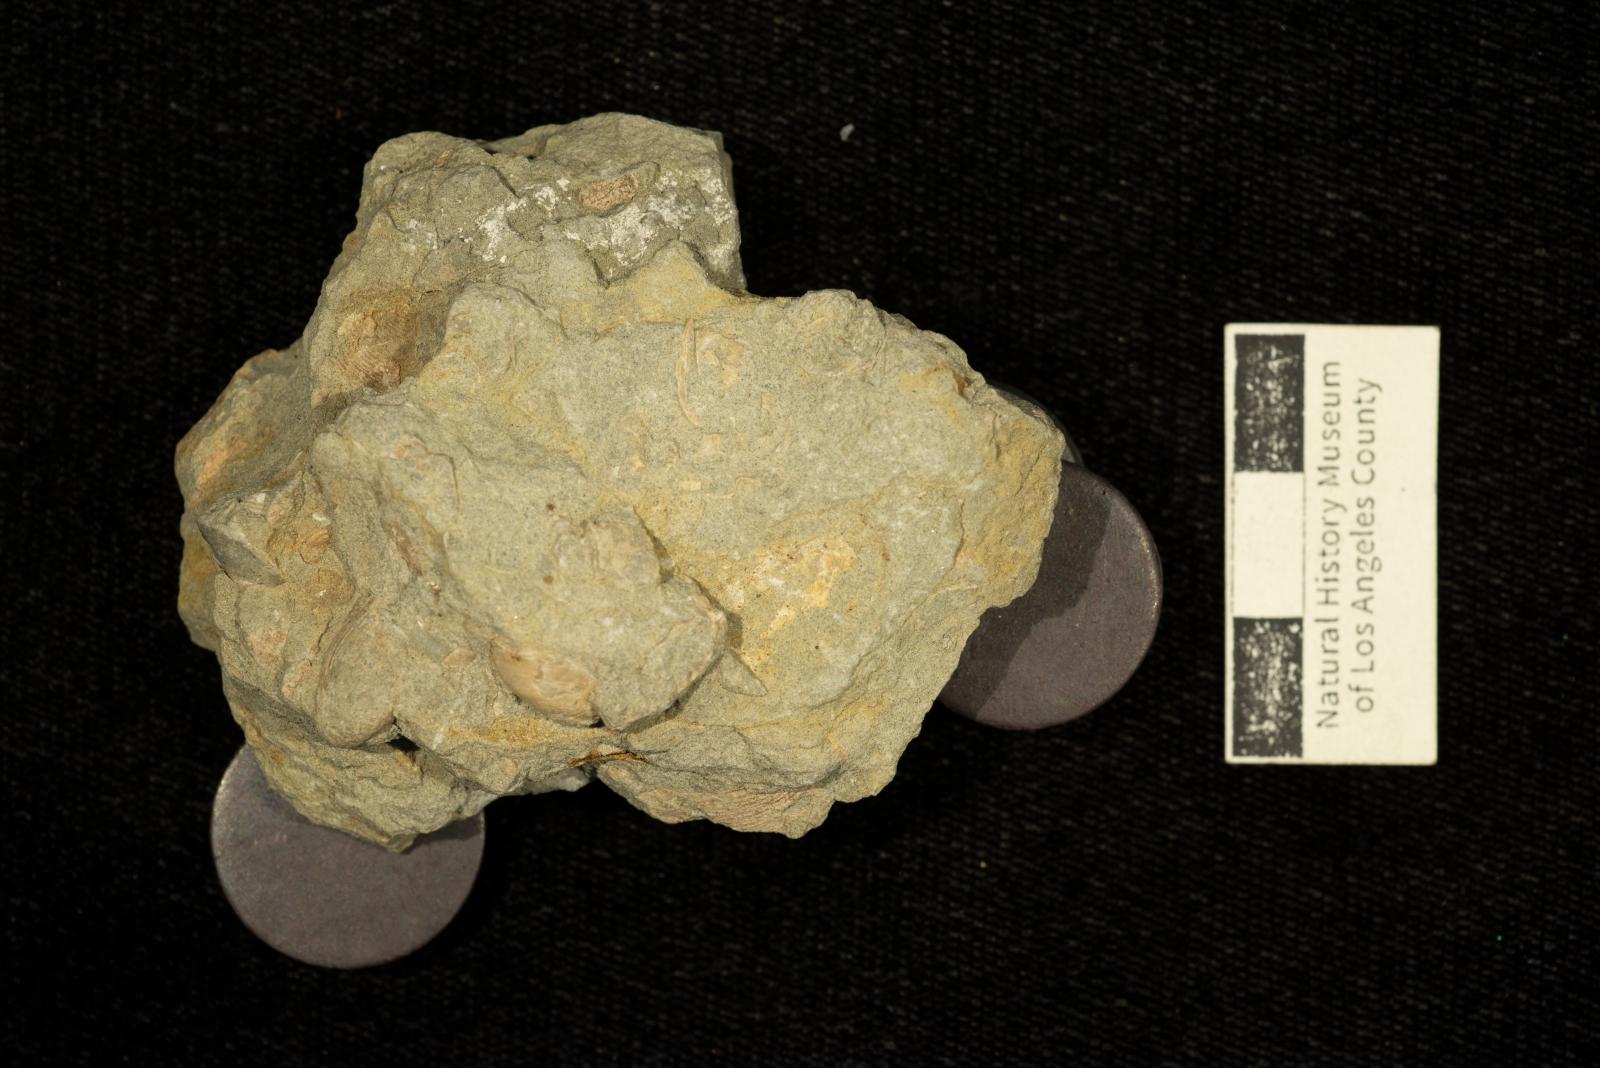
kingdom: Animalia
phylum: Mollusca
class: Bivalvia
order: Venerida
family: Cyrenidae
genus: Corbicula
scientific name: Corbicula astartoides
